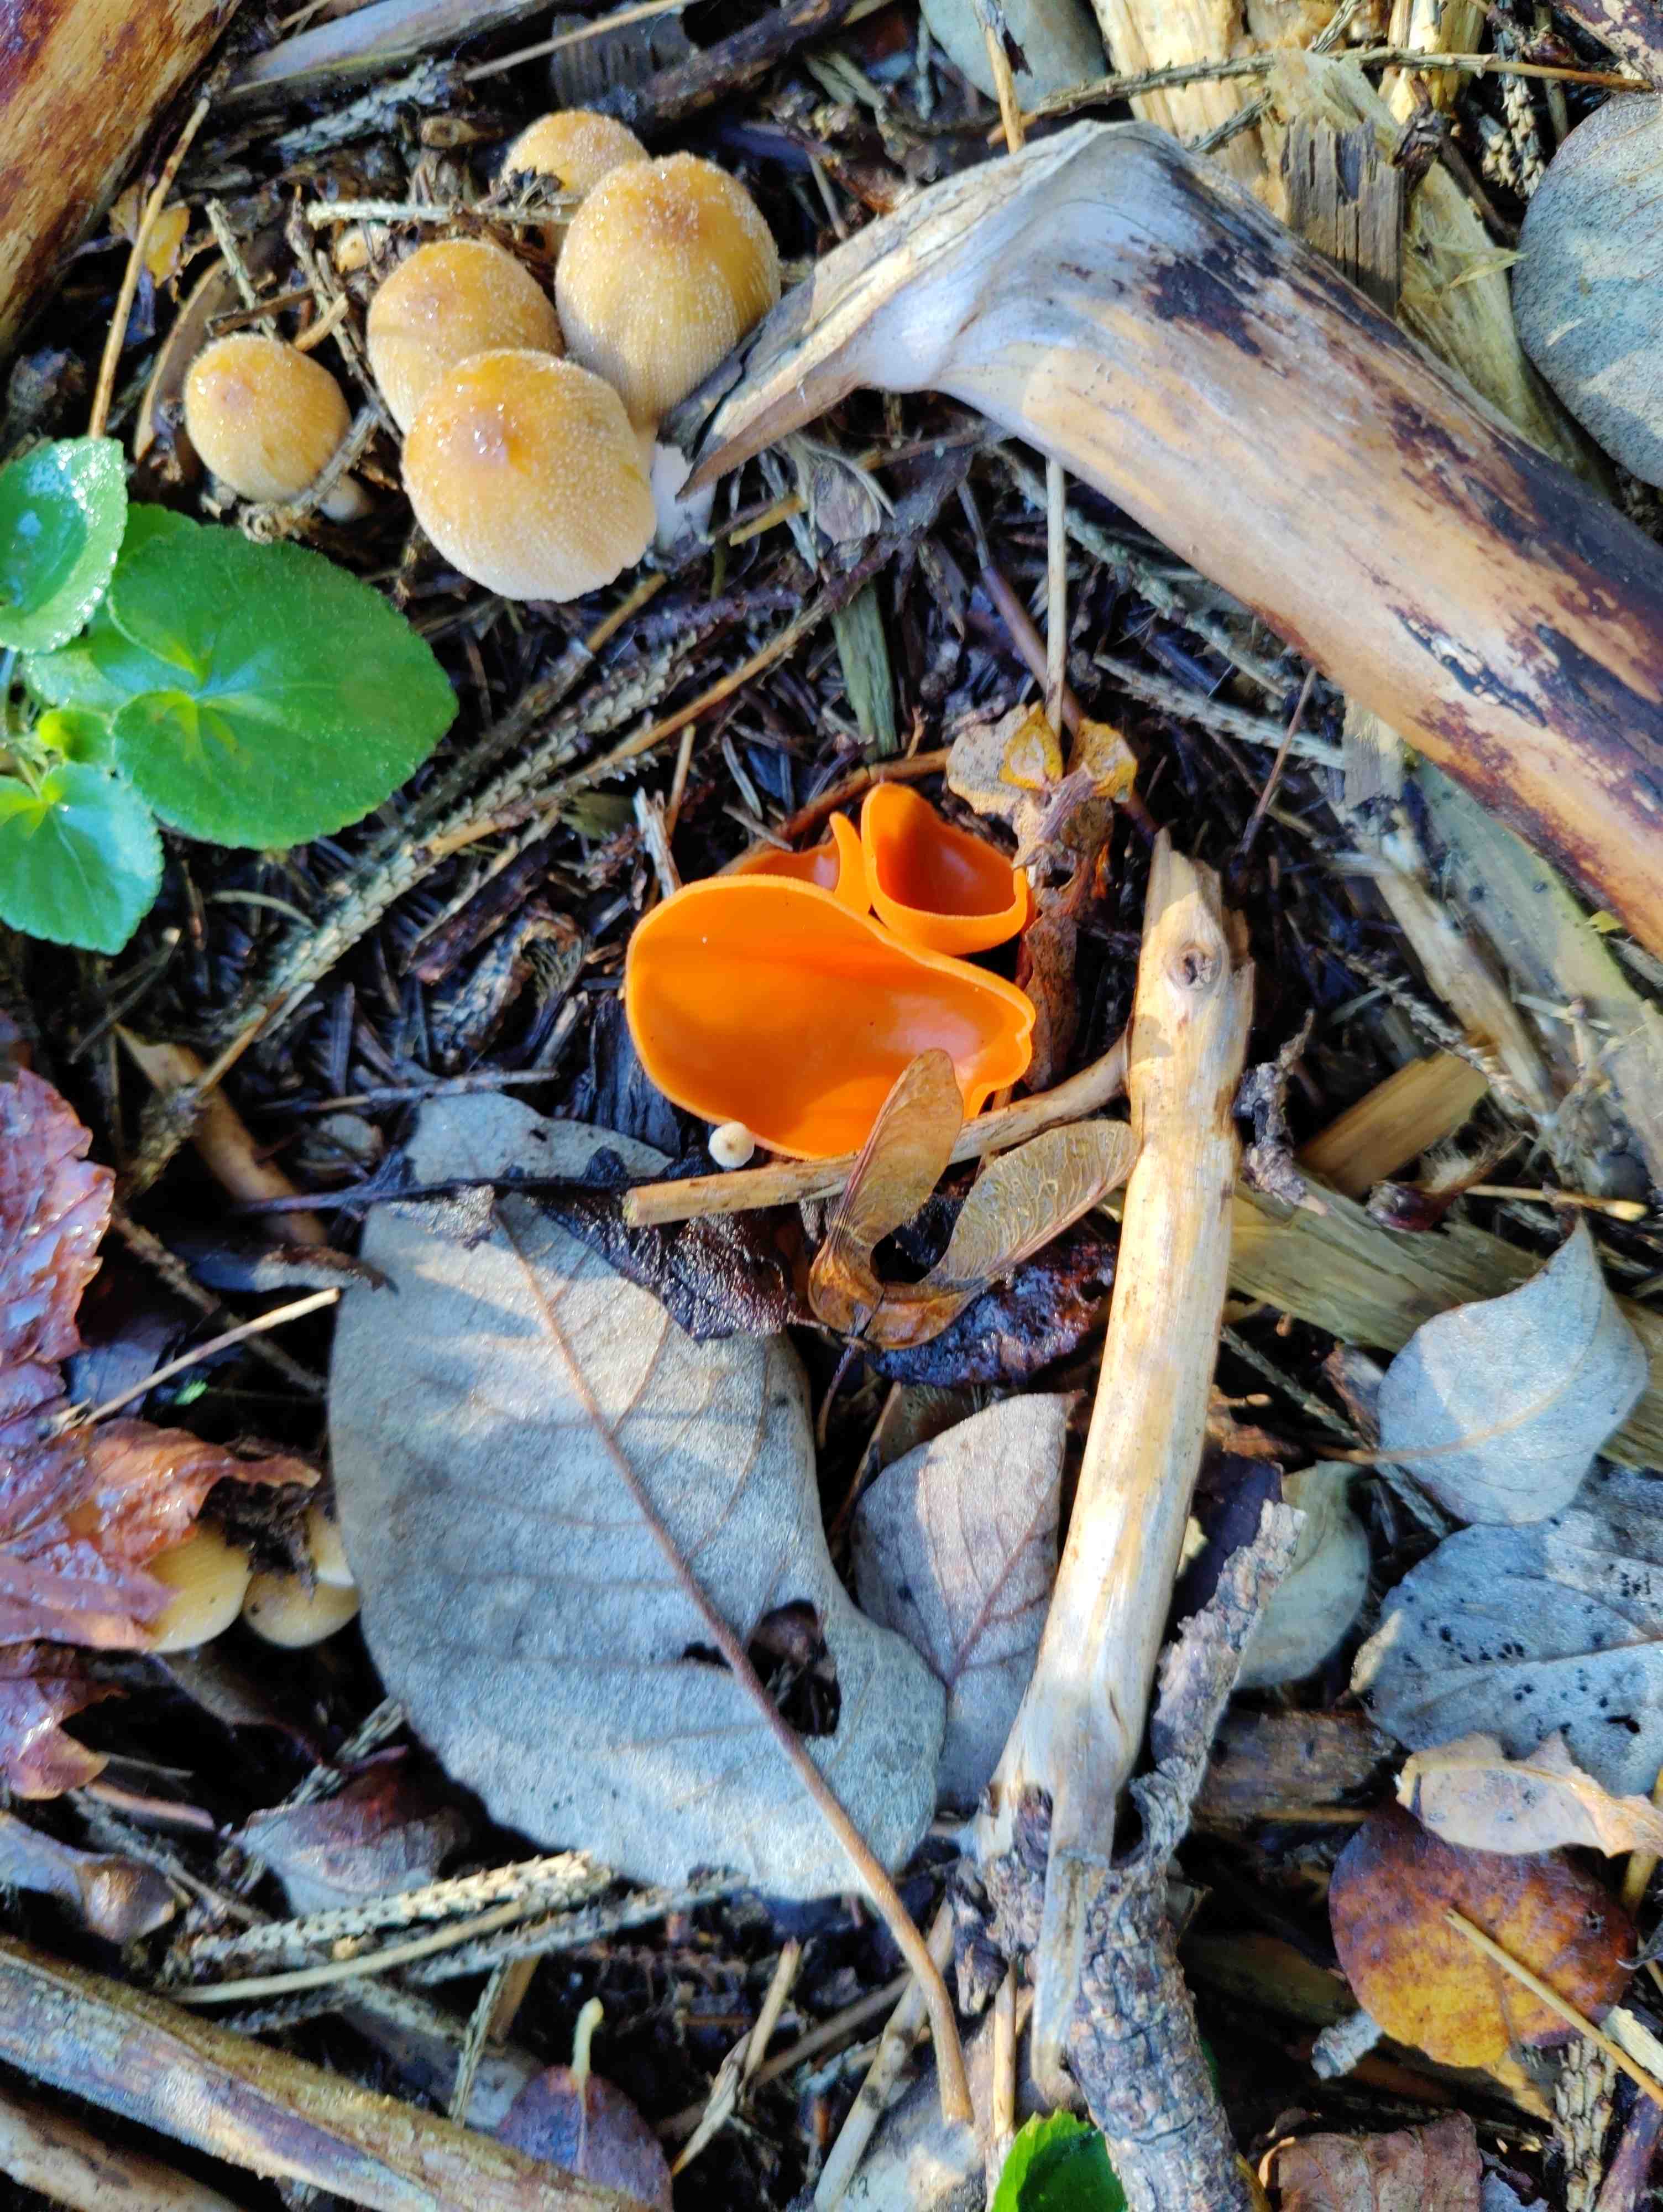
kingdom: Fungi
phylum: Ascomycota
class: Pezizomycetes
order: Pezizales
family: Pyronemataceae
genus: Aleuria
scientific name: Aleuria aurantia
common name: almindelig orangebæger
